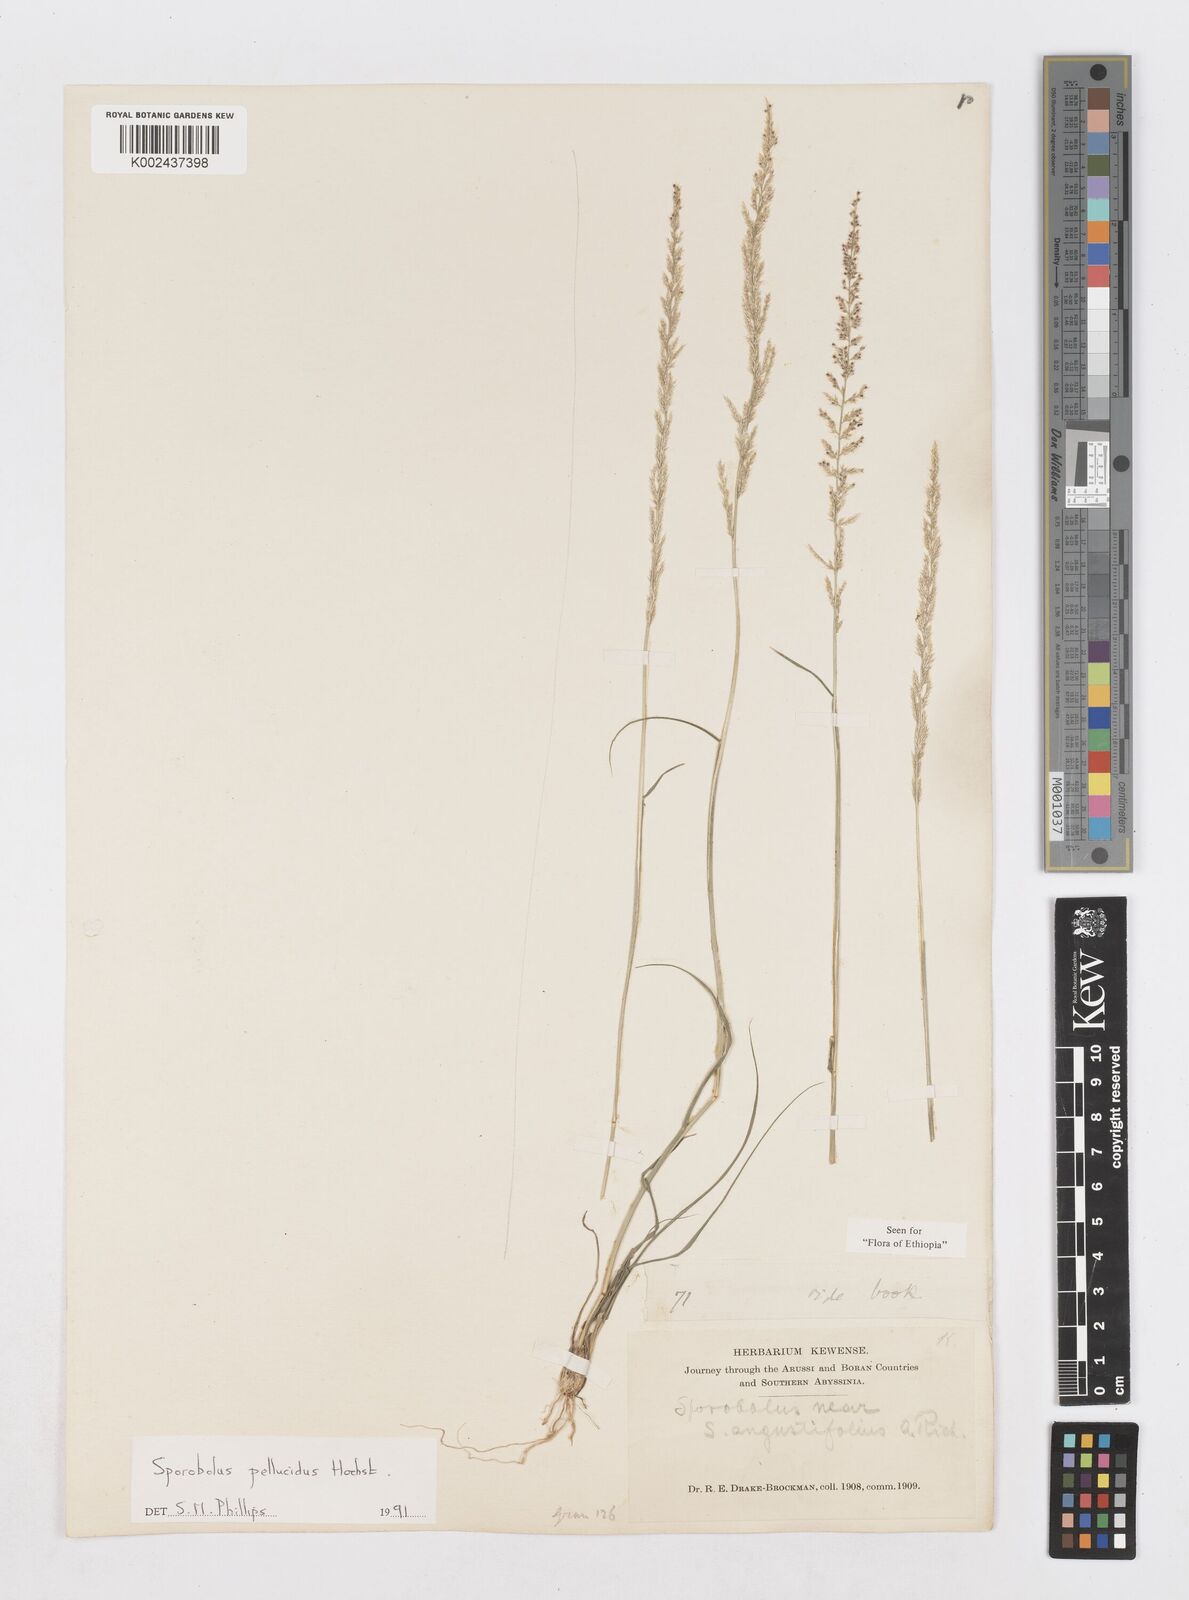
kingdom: Plantae
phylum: Tracheophyta
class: Liliopsida
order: Poales
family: Poaceae
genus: Sporobolus
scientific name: Sporobolus pellucidus
